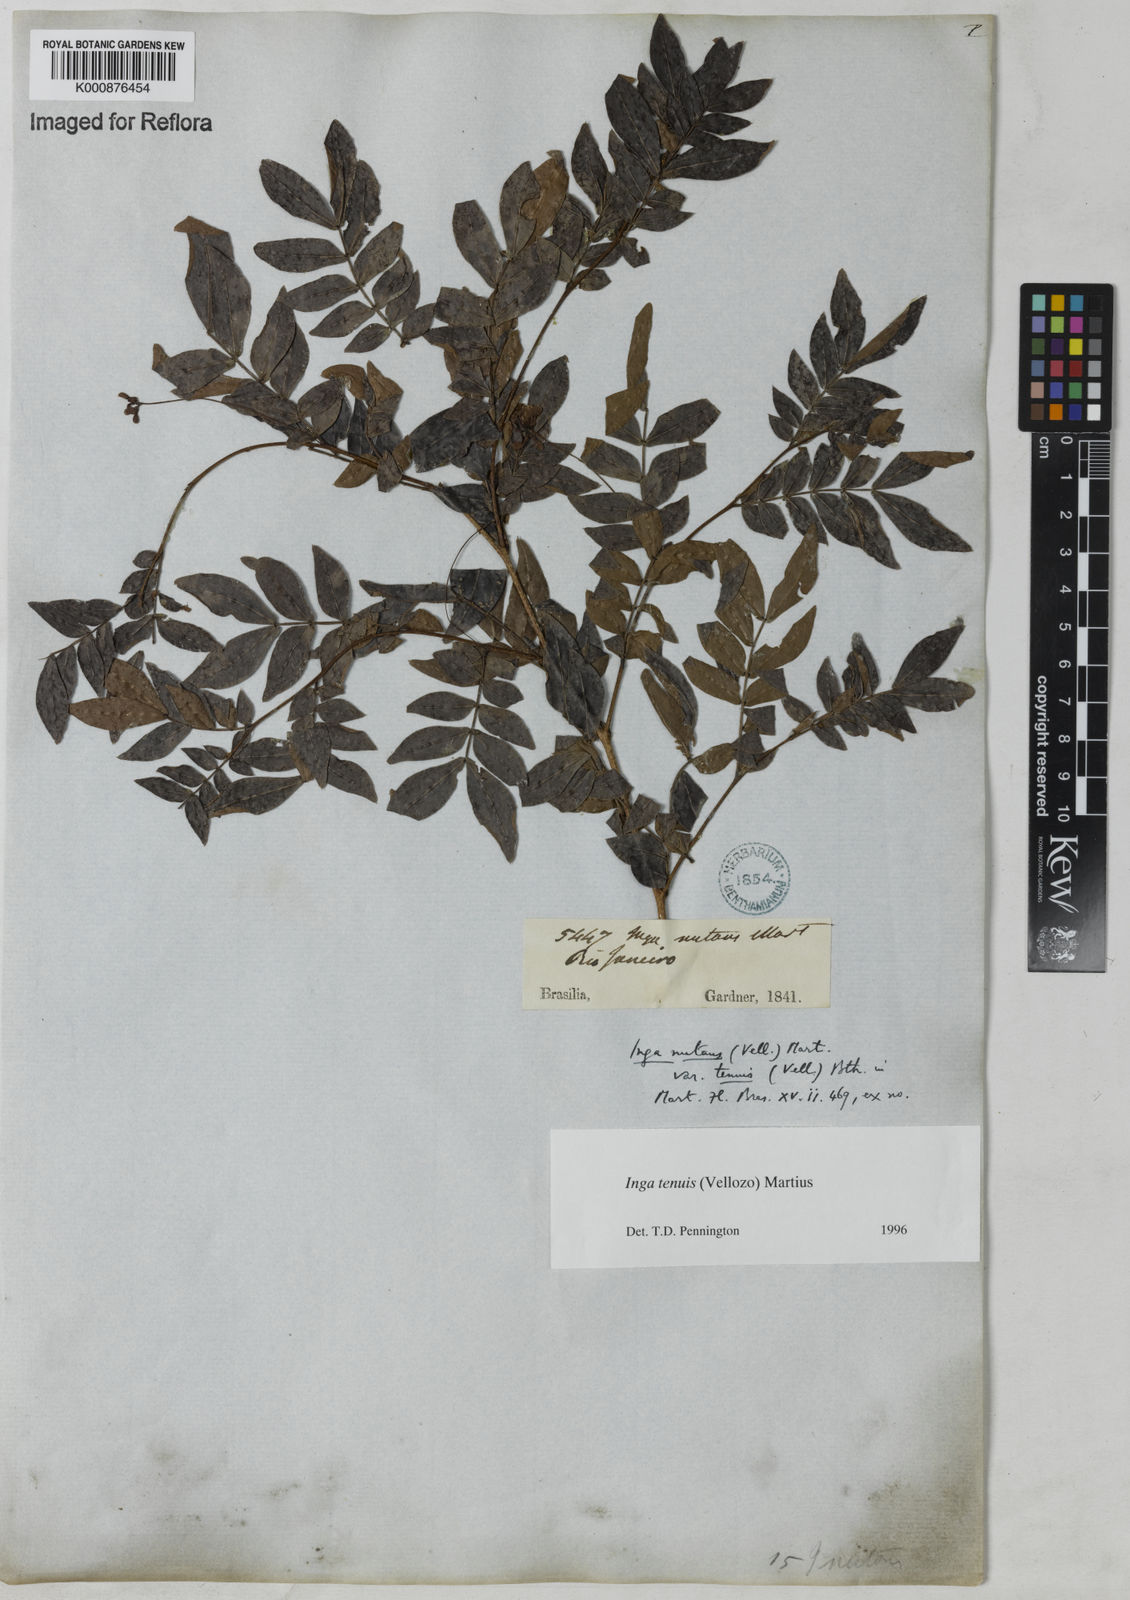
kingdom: Plantae
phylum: Tracheophyta
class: Magnoliopsida
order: Fabales
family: Fabaceae
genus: Inga
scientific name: Inga tenuis
